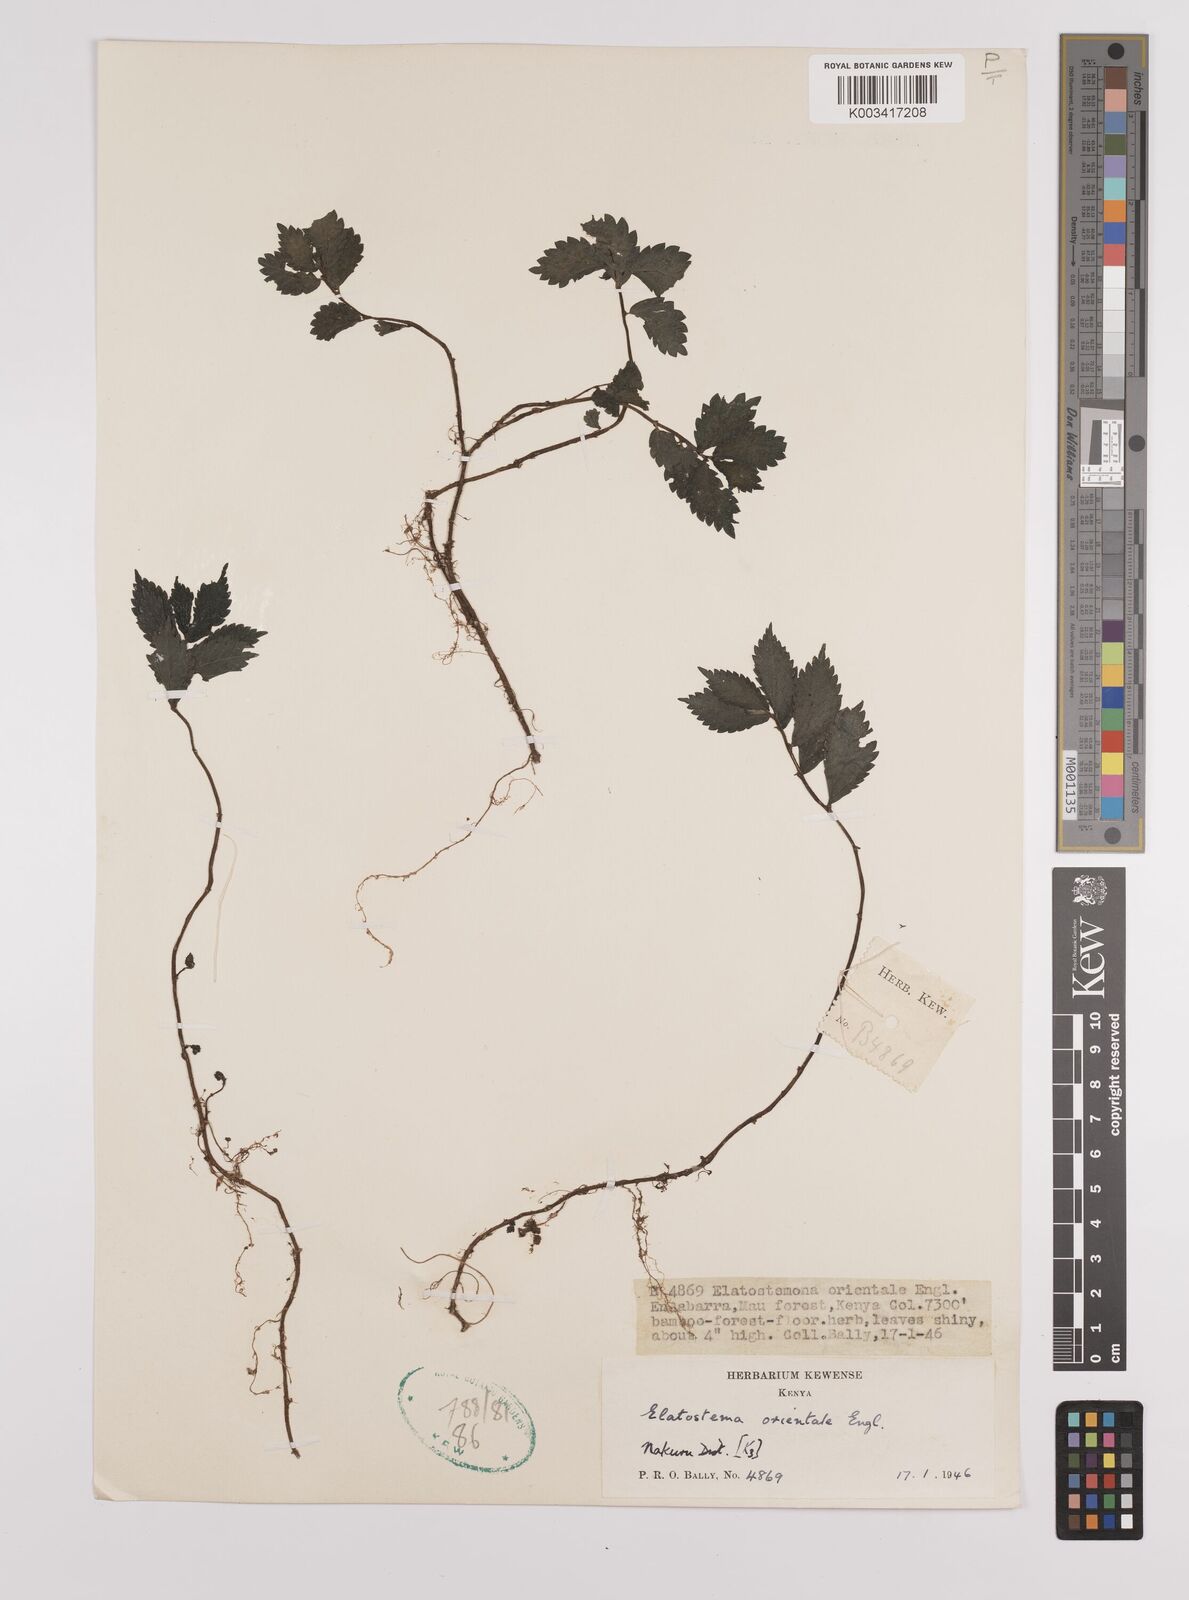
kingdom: Plantae
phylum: Tracheophyta
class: Magnoliopsida
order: Rosales
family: Urticaceae
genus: Elatostema
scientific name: Elatostema monticola
